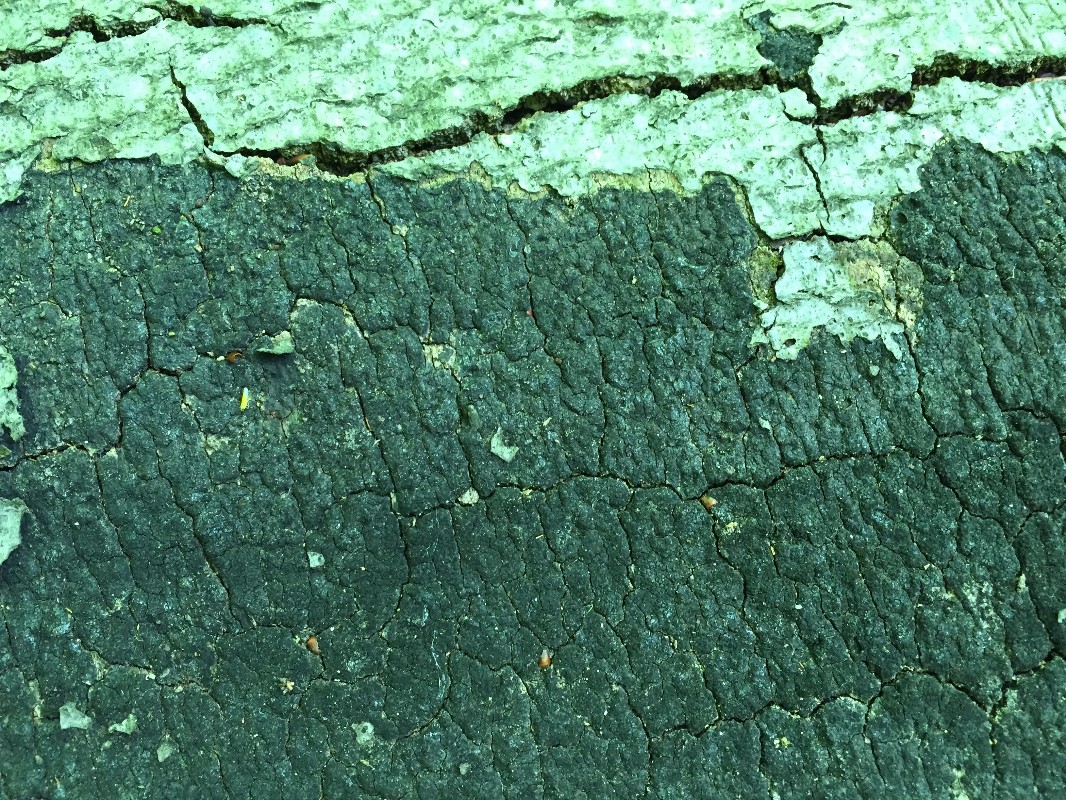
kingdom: Fungi
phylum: Ascomycota
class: Sordariomycetes
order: Xylariales
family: Diatrypaceae
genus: Eutypa
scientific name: Eutypa spinosa
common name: grov kulskorpe
